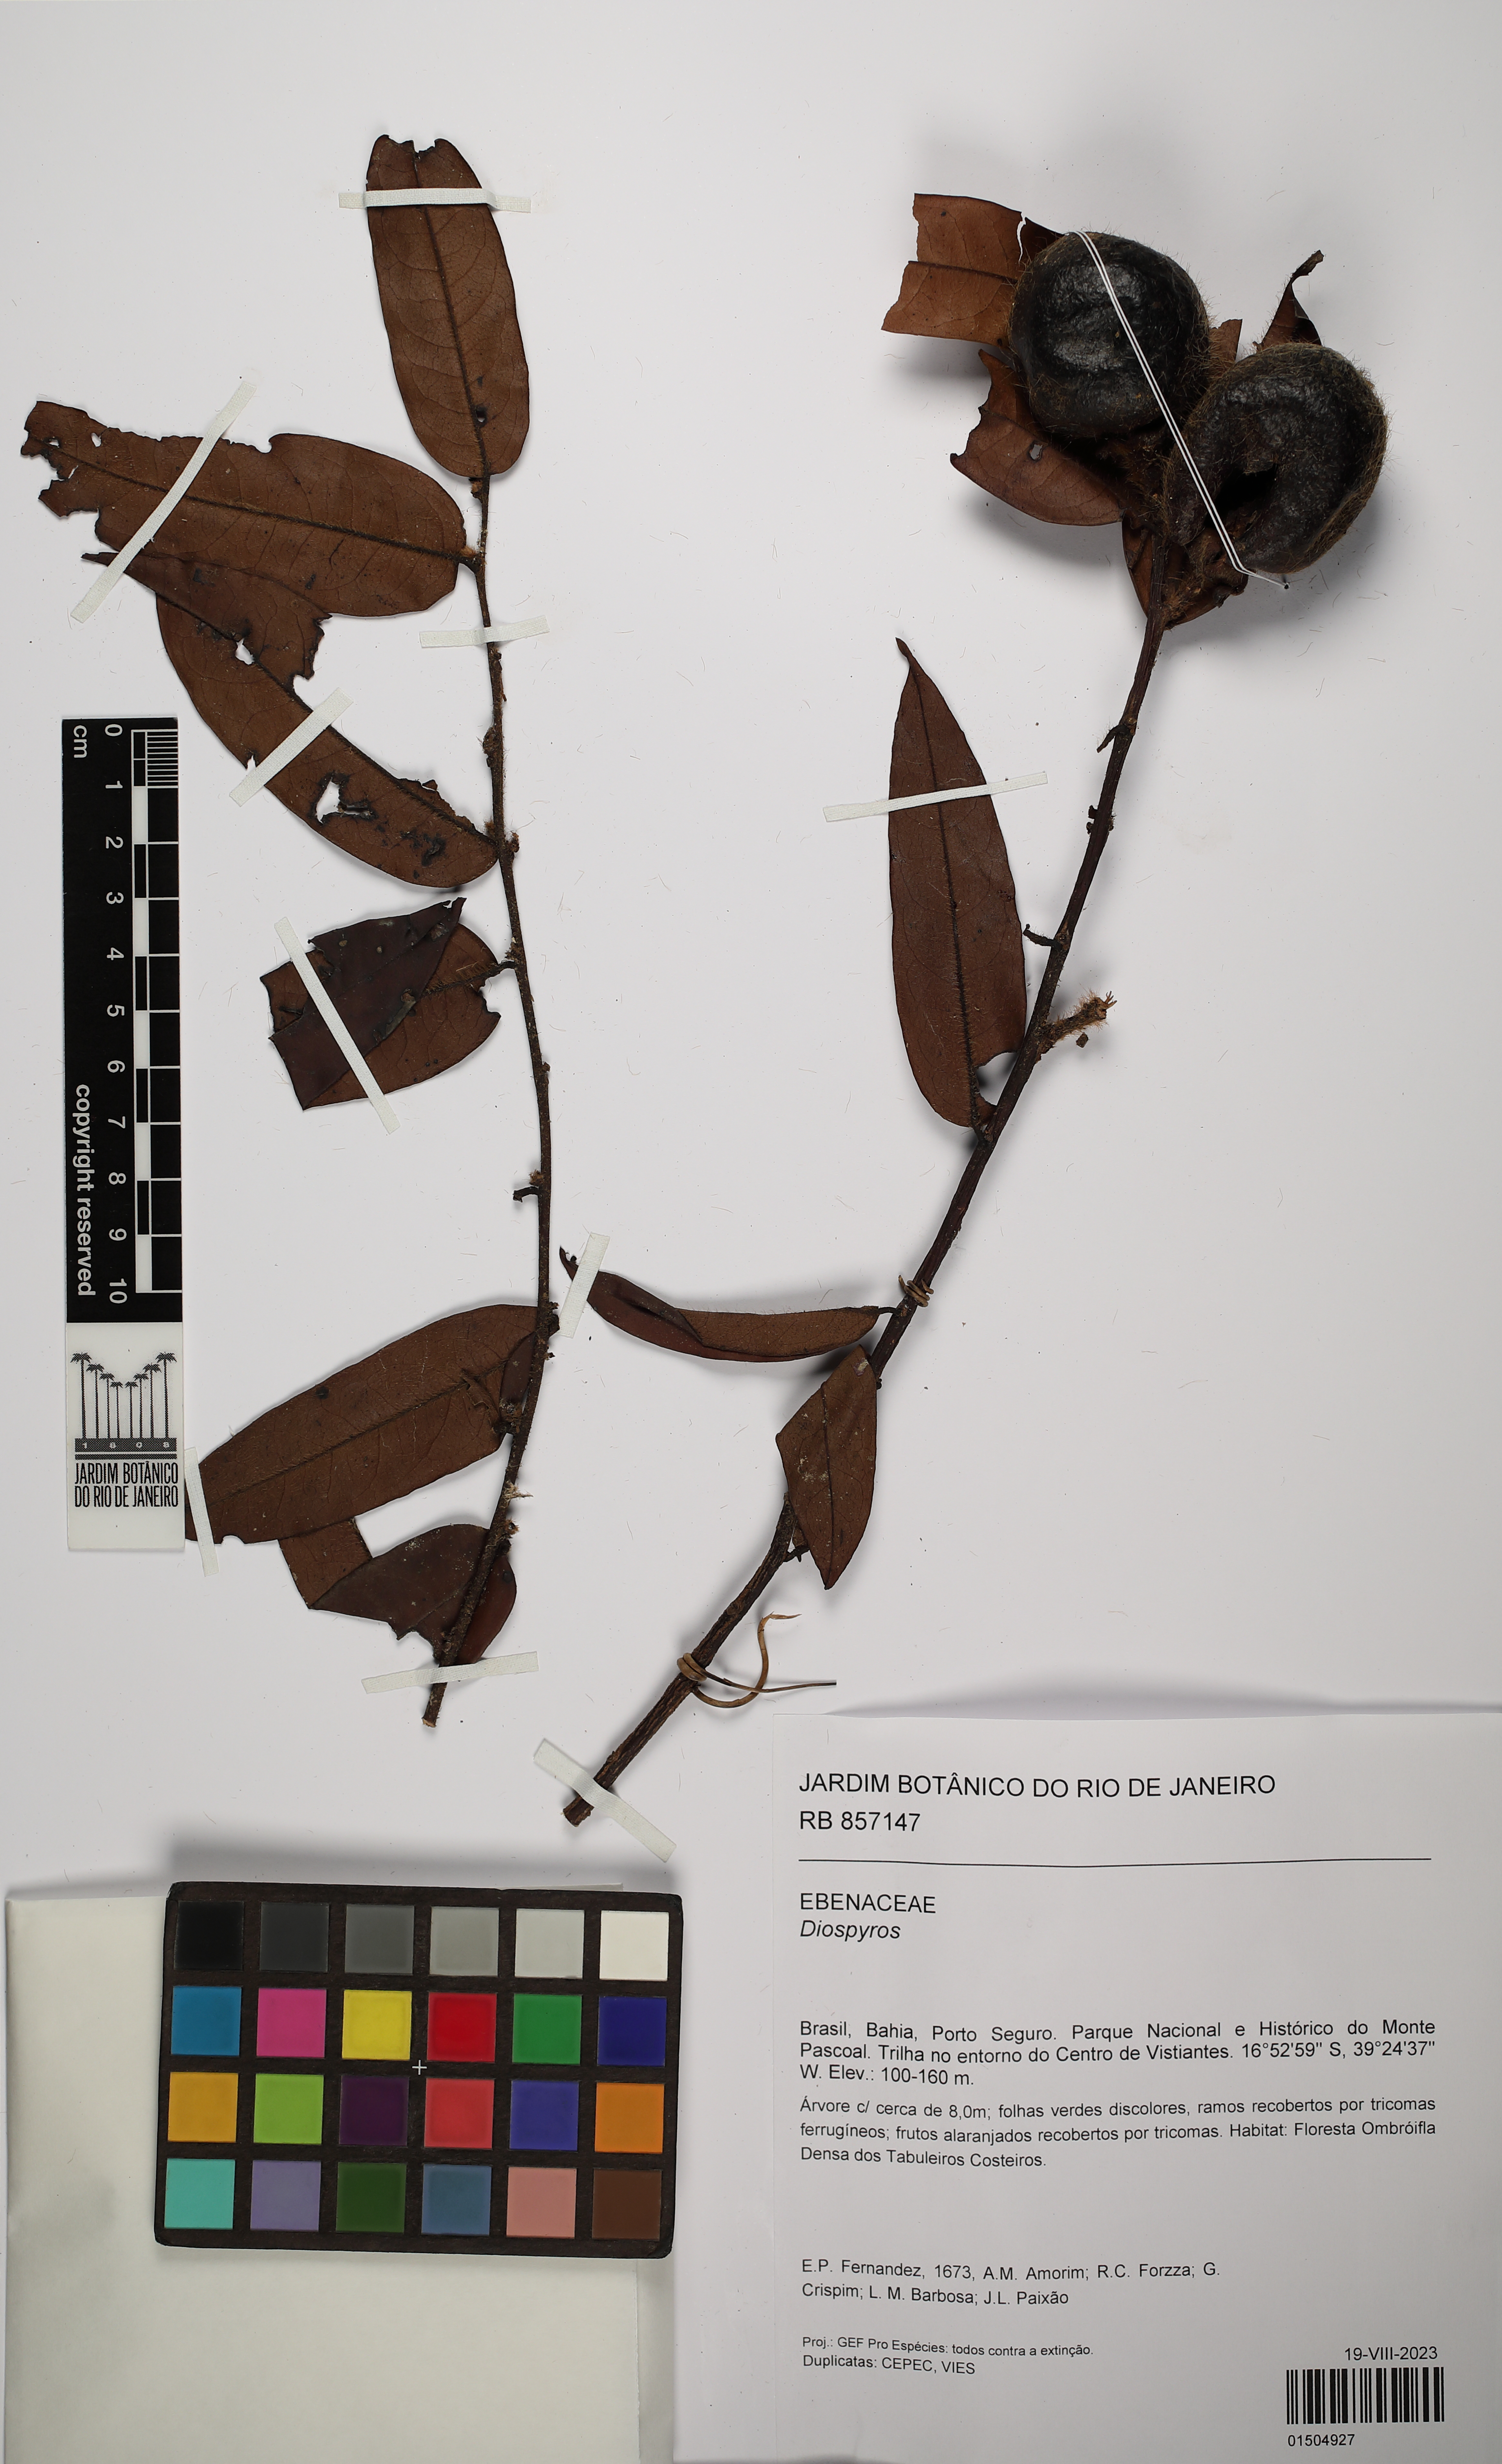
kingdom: Plantae
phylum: Tracheophyta
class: Magnoliopsida
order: Ericales
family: Ebenaceae
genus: Diospyros
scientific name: Diospyros
